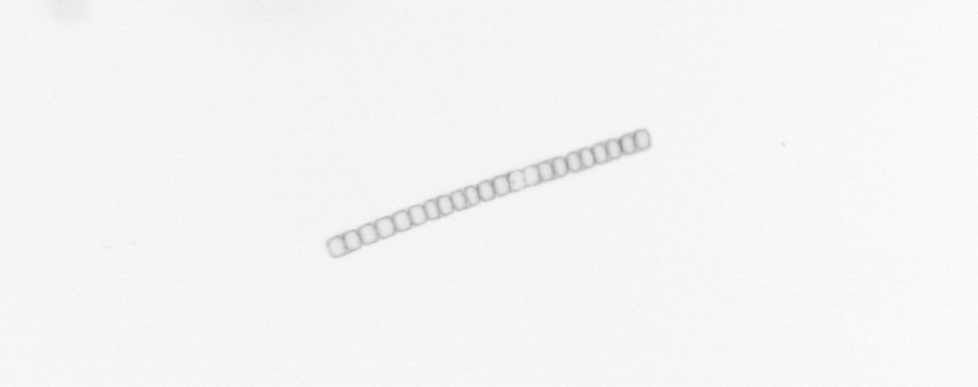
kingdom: Chromista
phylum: Ochrophyta
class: Bacillariophyceae
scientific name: Bacillariophyceae
